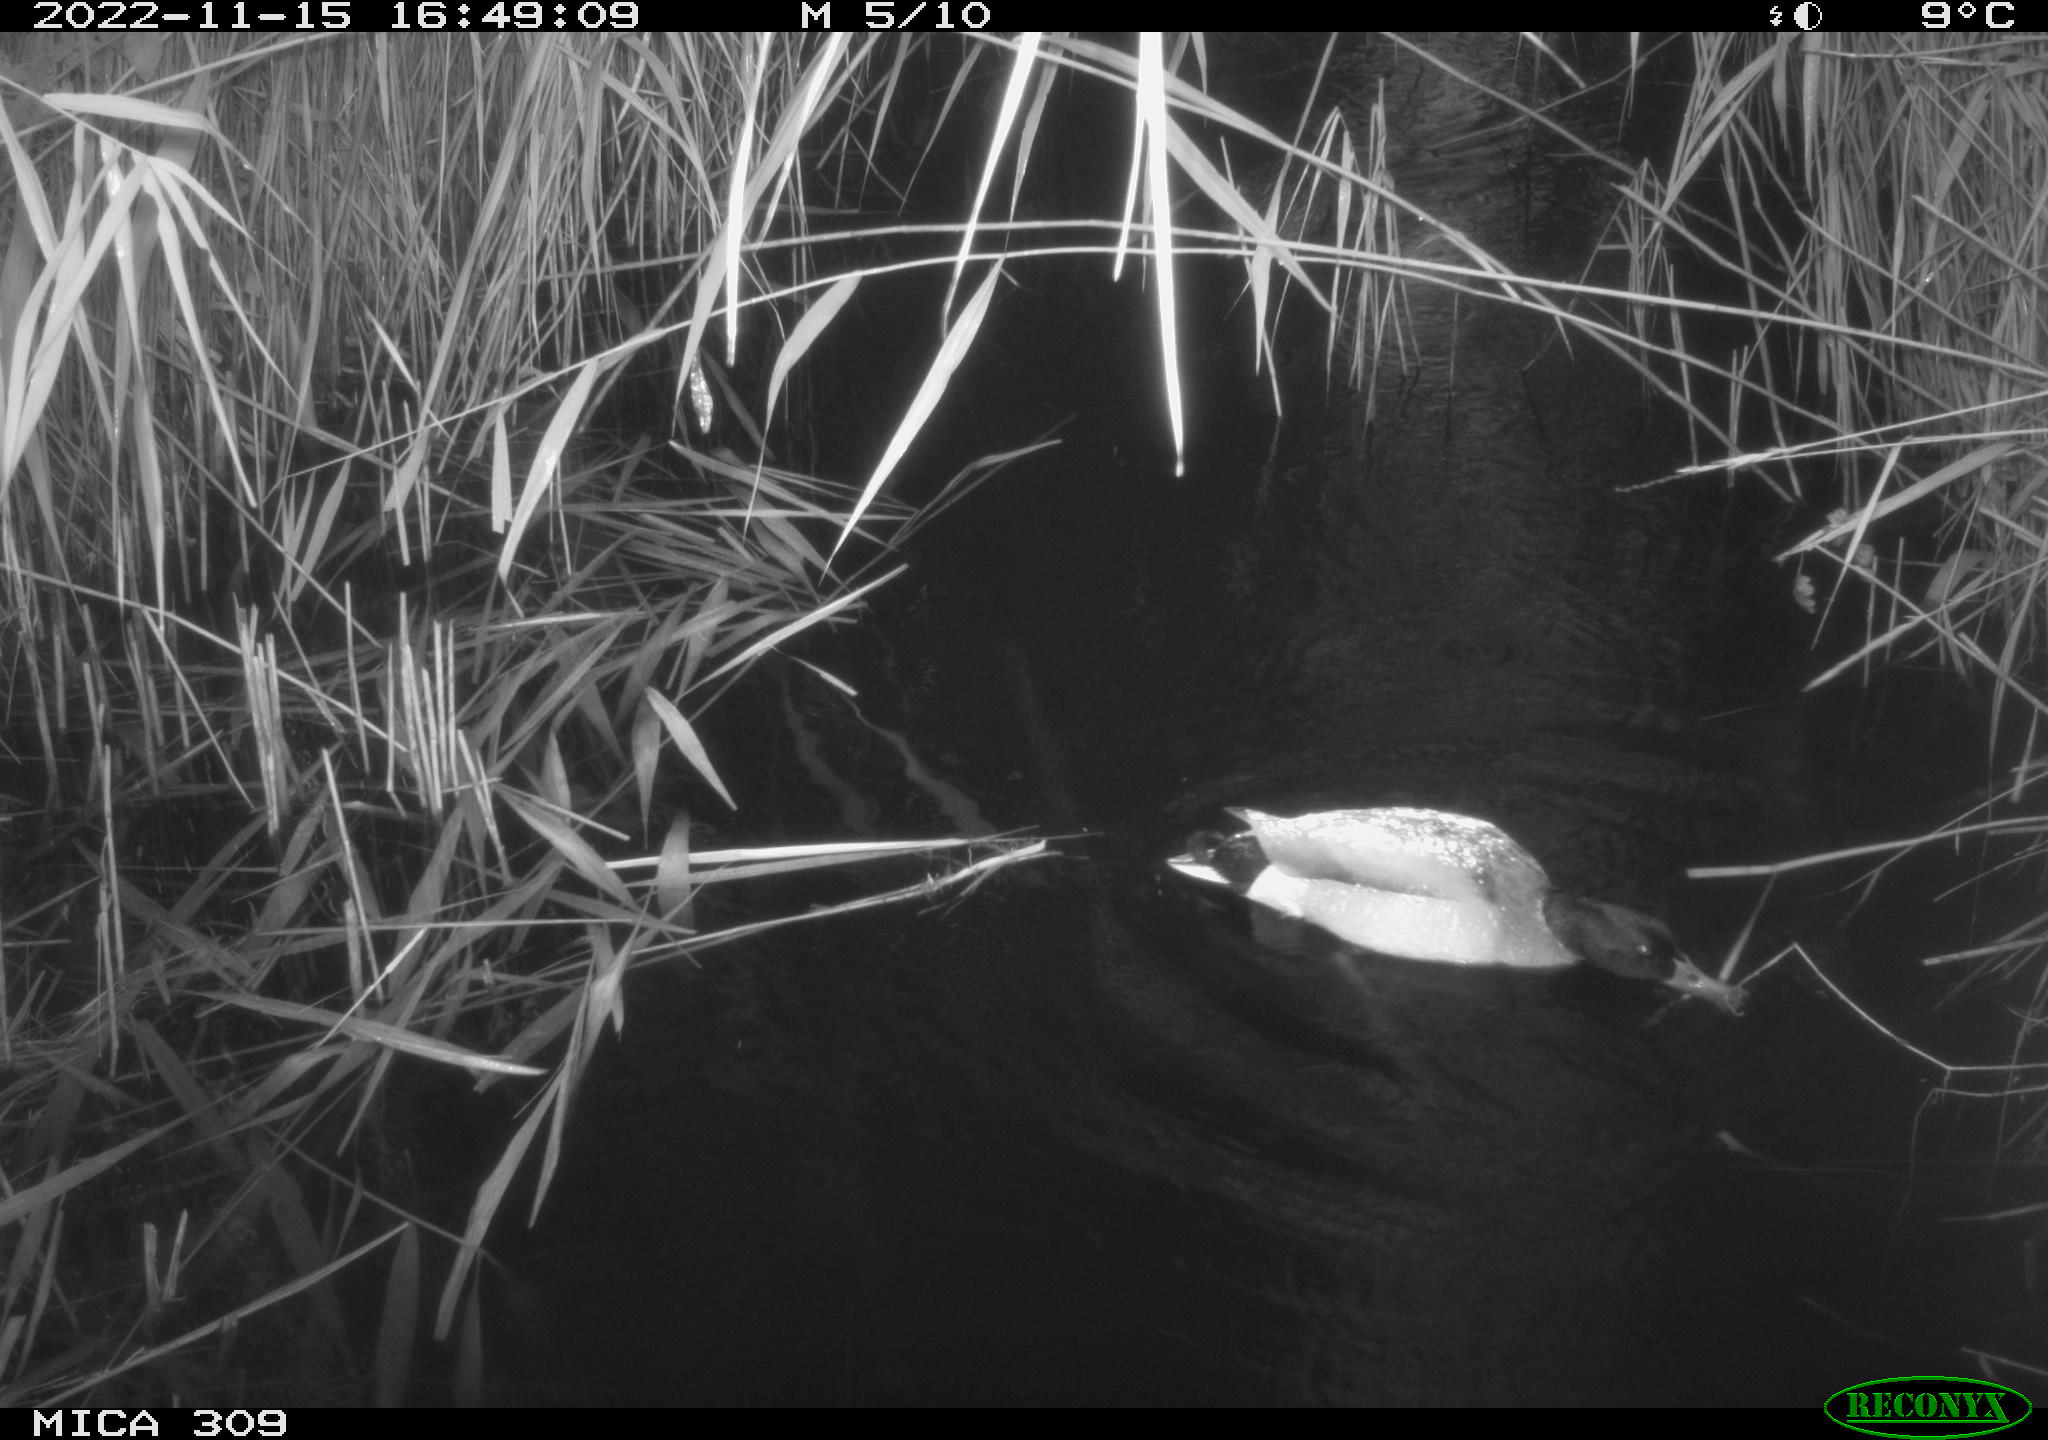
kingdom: Animalia
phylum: Chordata
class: Aves
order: Anseriformes
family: Anatidae
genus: Anas
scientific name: Anas
